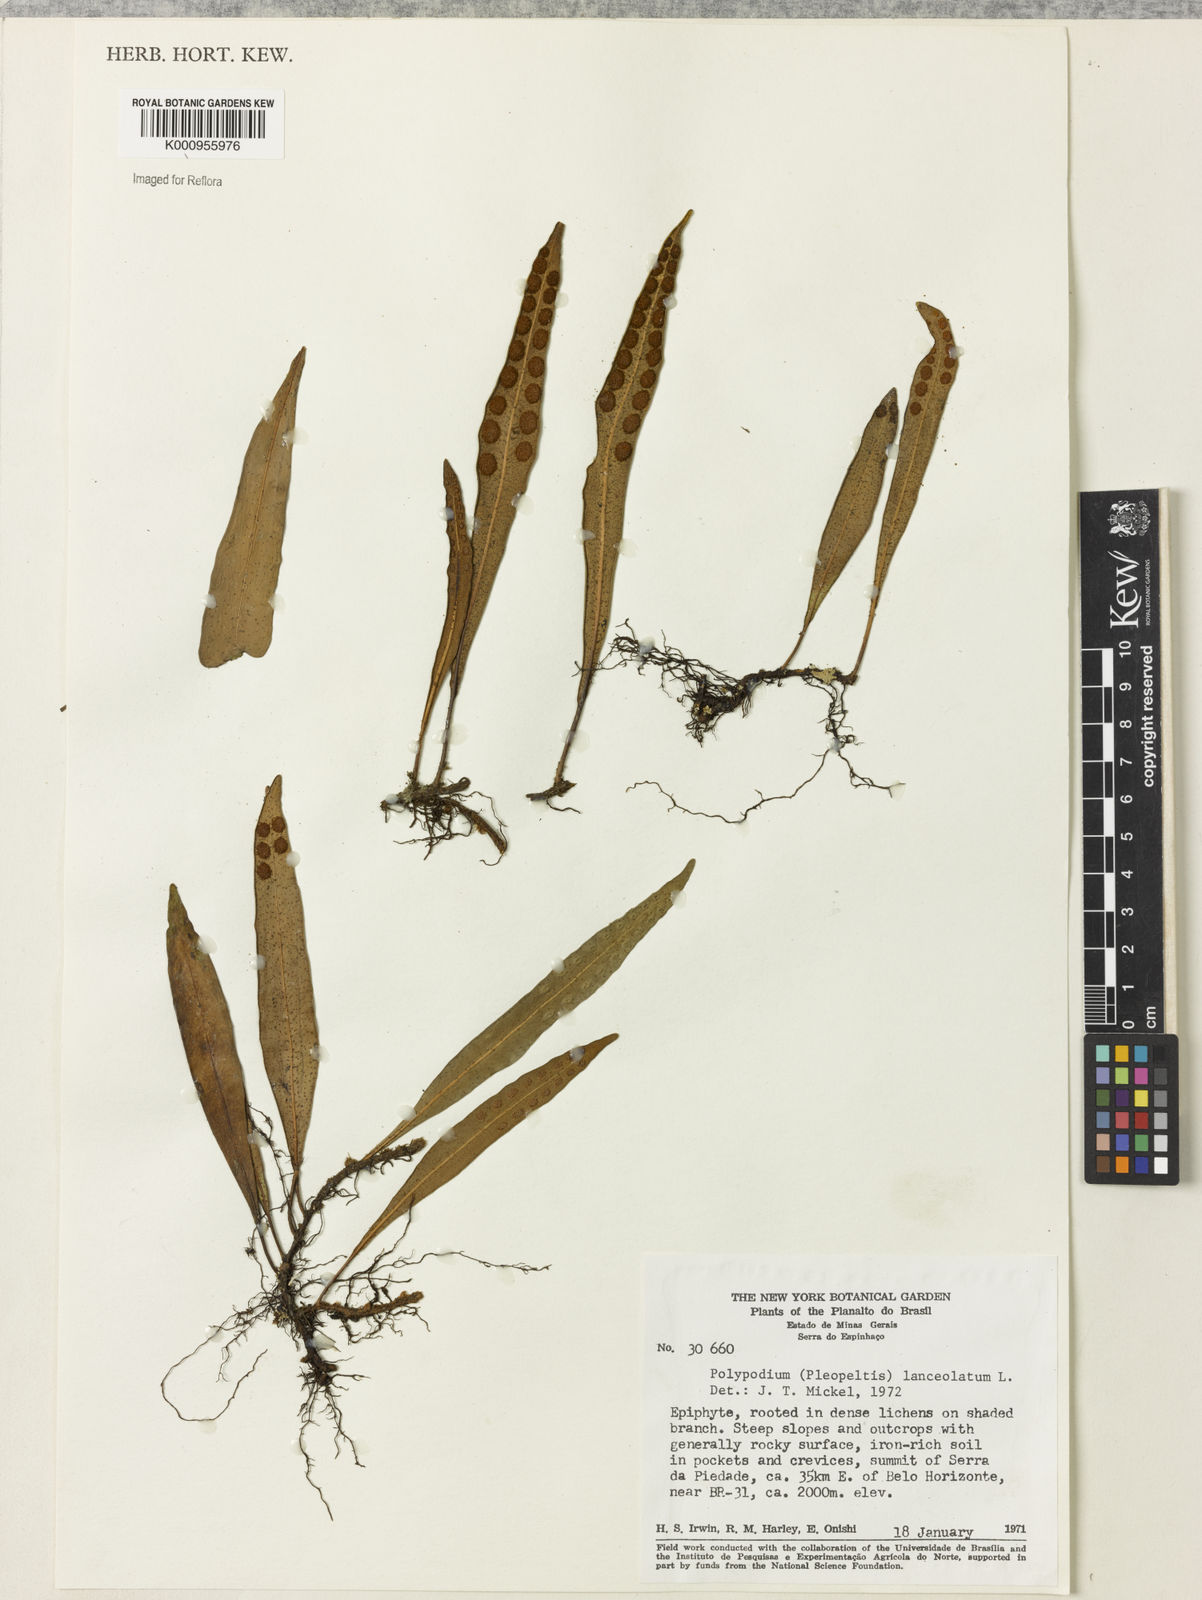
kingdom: Plantae
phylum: Tracheophyta
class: Polypodiopsida
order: Polypodiales
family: Polypodiaceae
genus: Pleopeltis
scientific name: Pleopeltis
